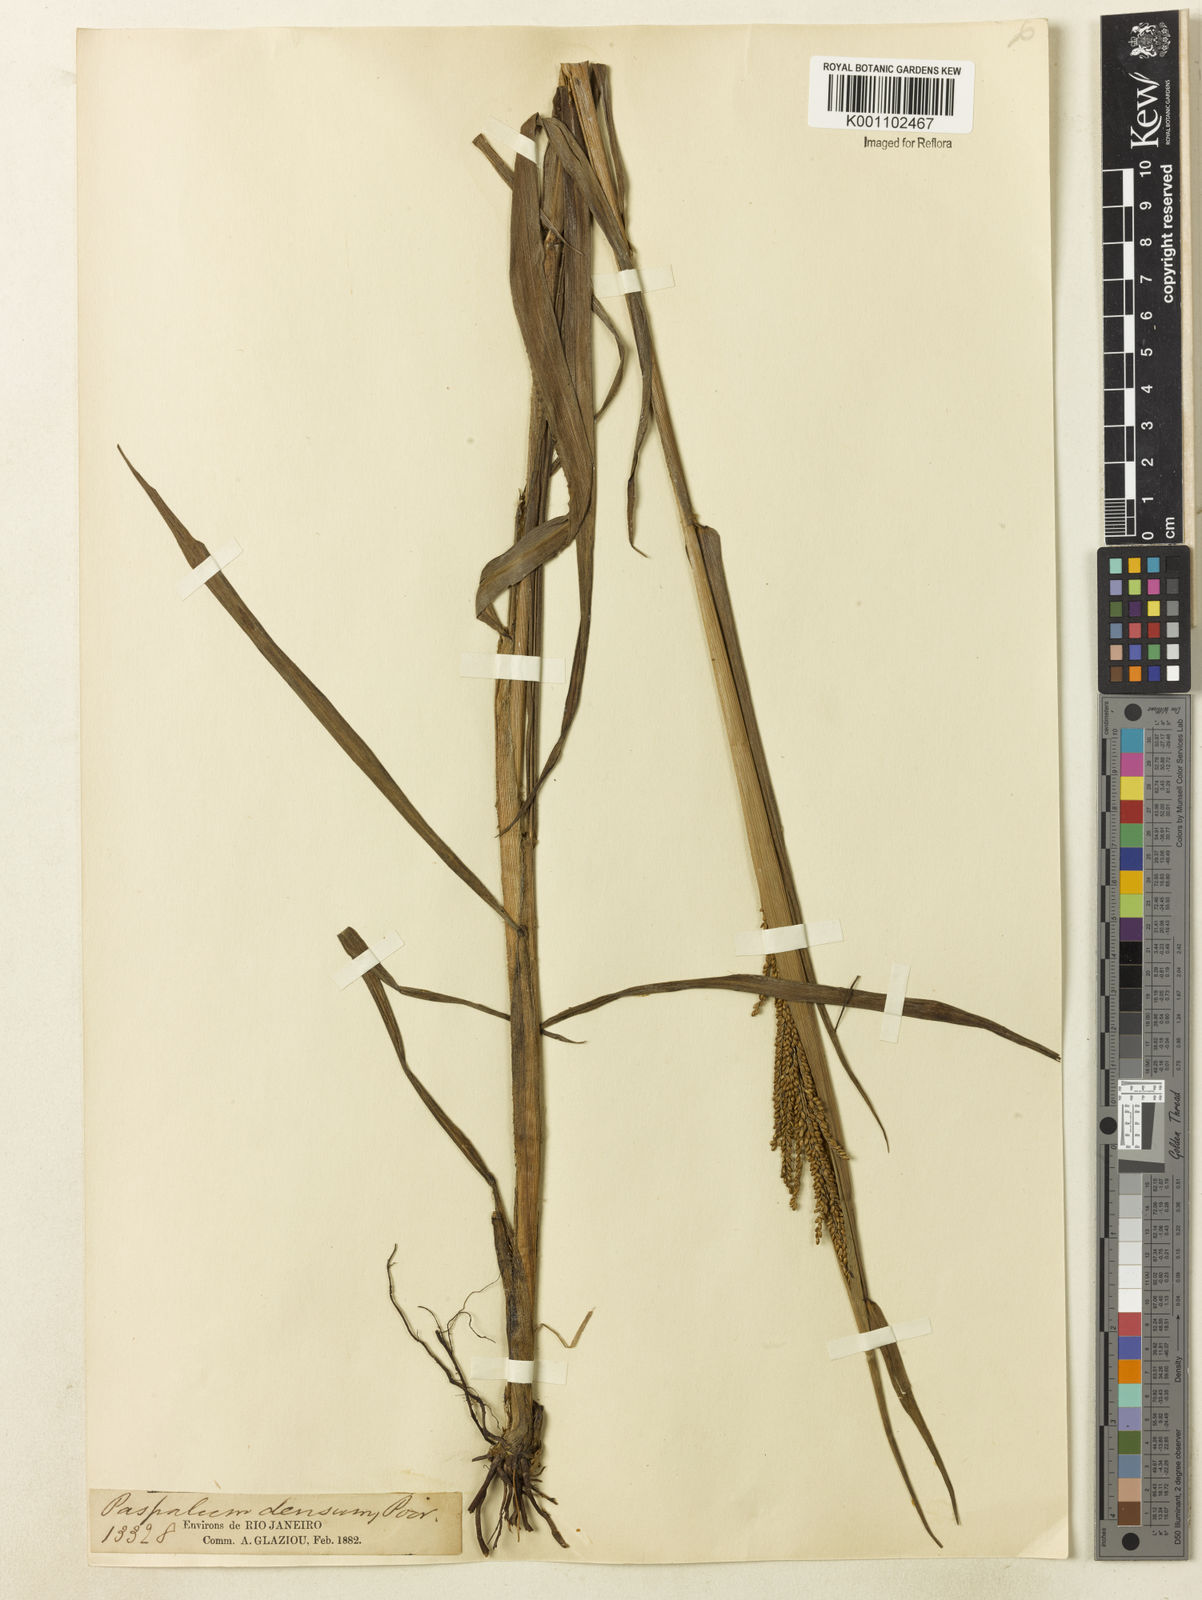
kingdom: Plantae
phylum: Tracheophyta
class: Liliopsida
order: Poales
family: Poaceae
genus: Paspalum
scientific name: Paspalum coryphaeum
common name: Emperor crowngrass
